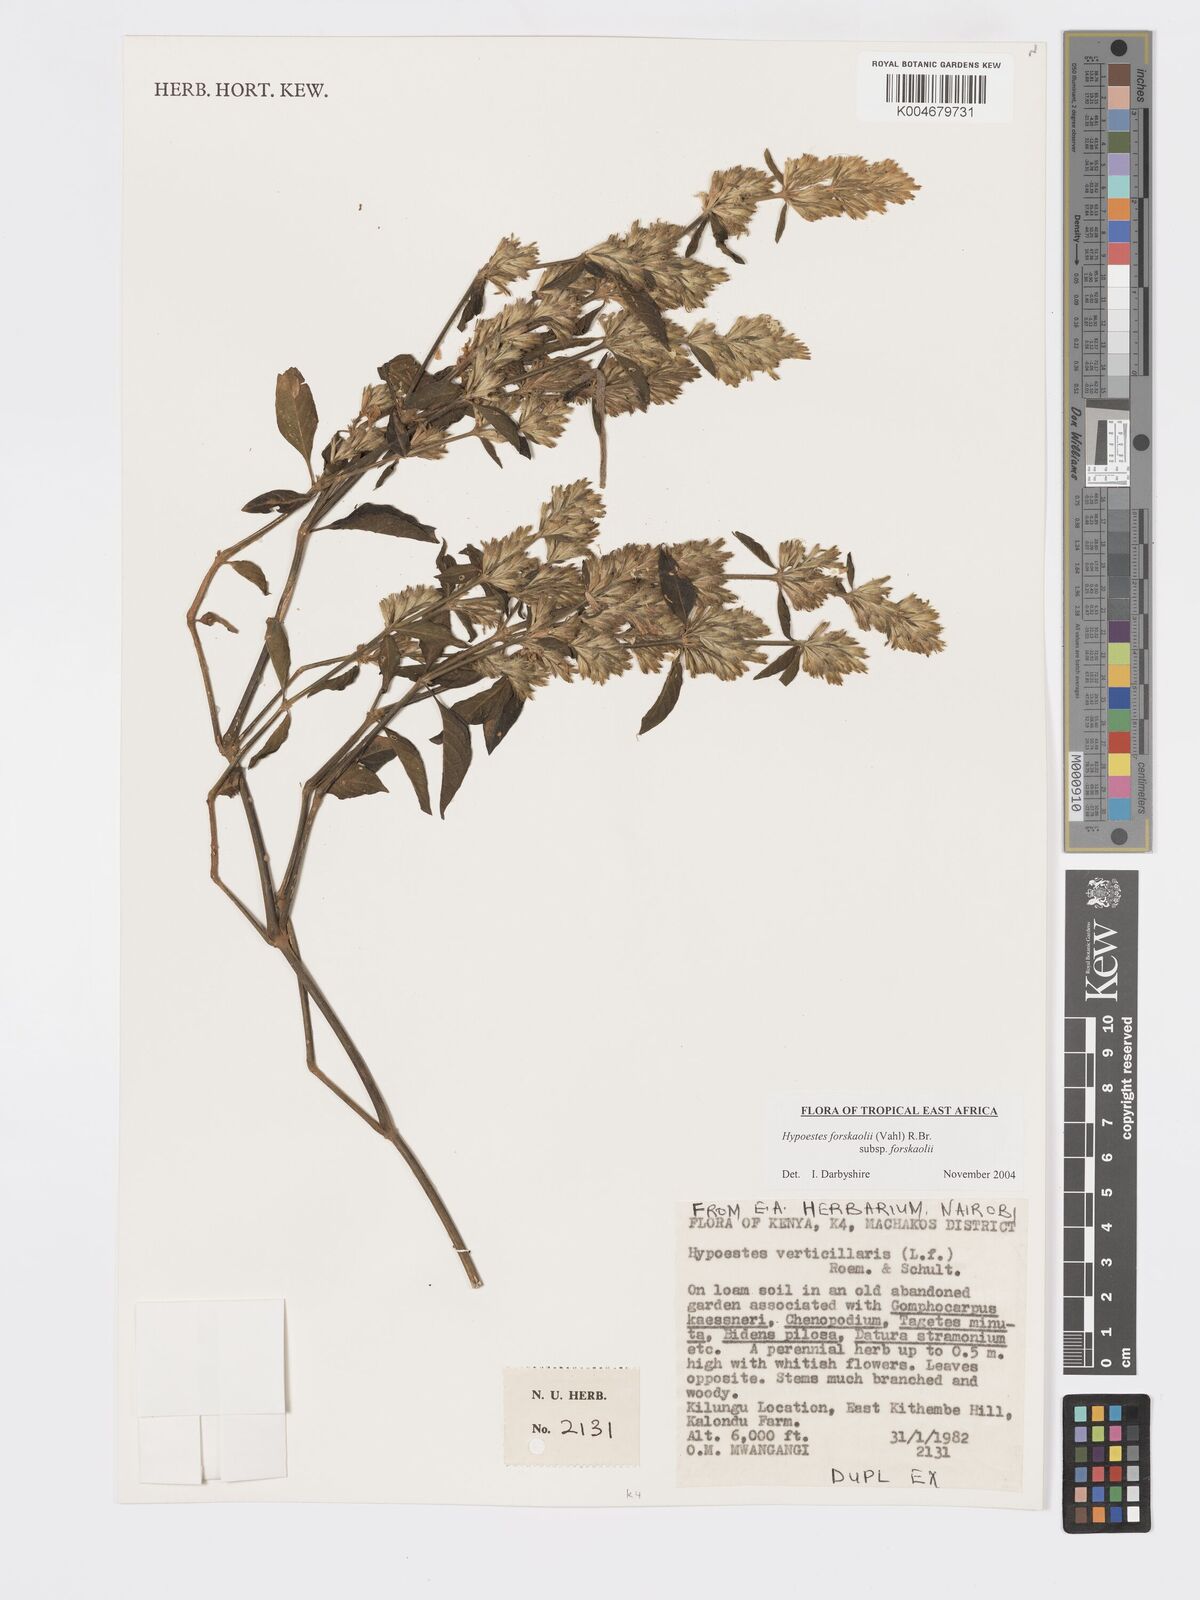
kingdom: Plantae
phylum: Tracheophyta
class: Magnoliopsida
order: Lamiales
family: Acanthaceae
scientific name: Acanthaceae
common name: Acanthaceae
